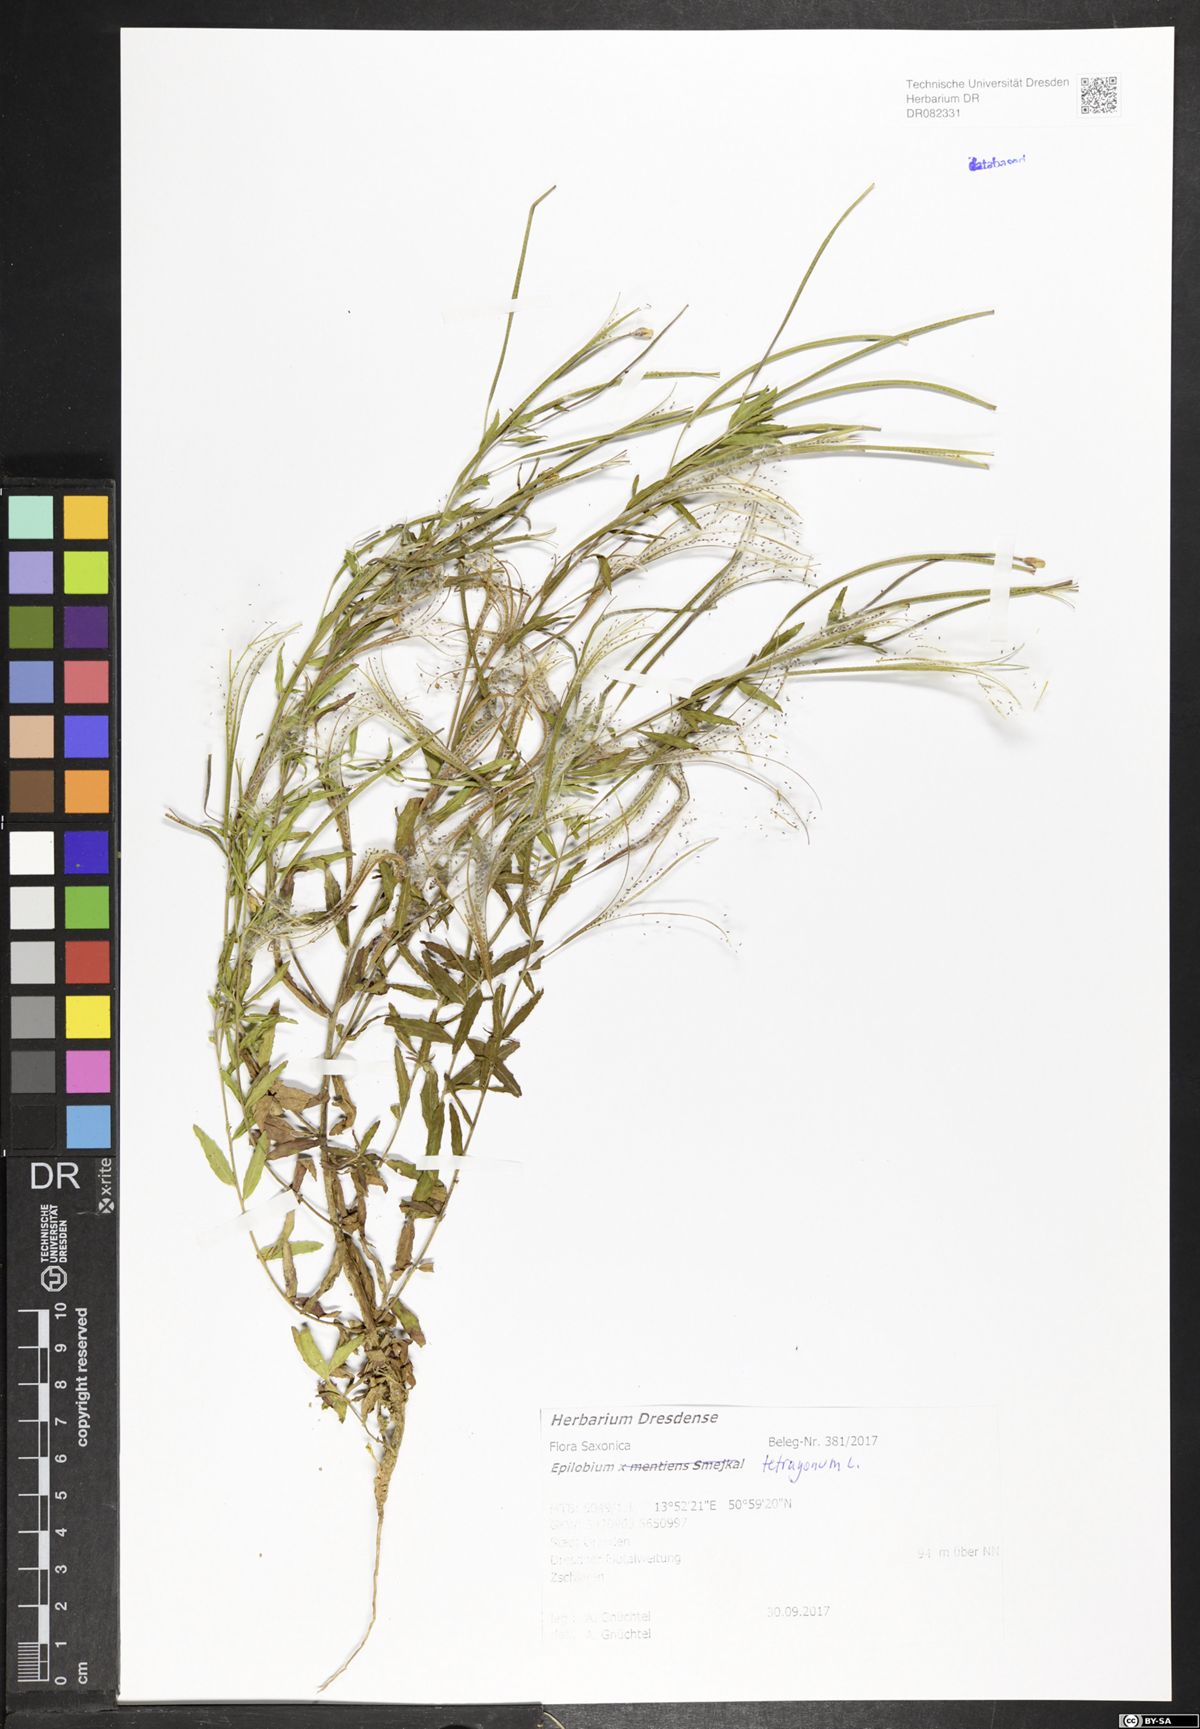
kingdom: Plantae
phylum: Tracheophyta
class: Magnoliopsida
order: Myrtales
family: Onagraceae
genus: Epilobium
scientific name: Epilobium tetragonum
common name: Square-stemmed willowherb
